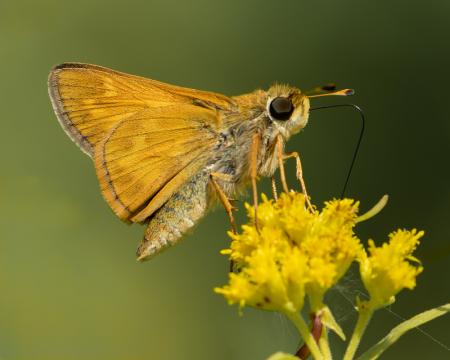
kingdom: Animalia
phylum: Arthropoda
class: Insecta
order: Lepidoptera
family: Hesperiidae
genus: Atalopedes
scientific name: Atalopedes campestris
